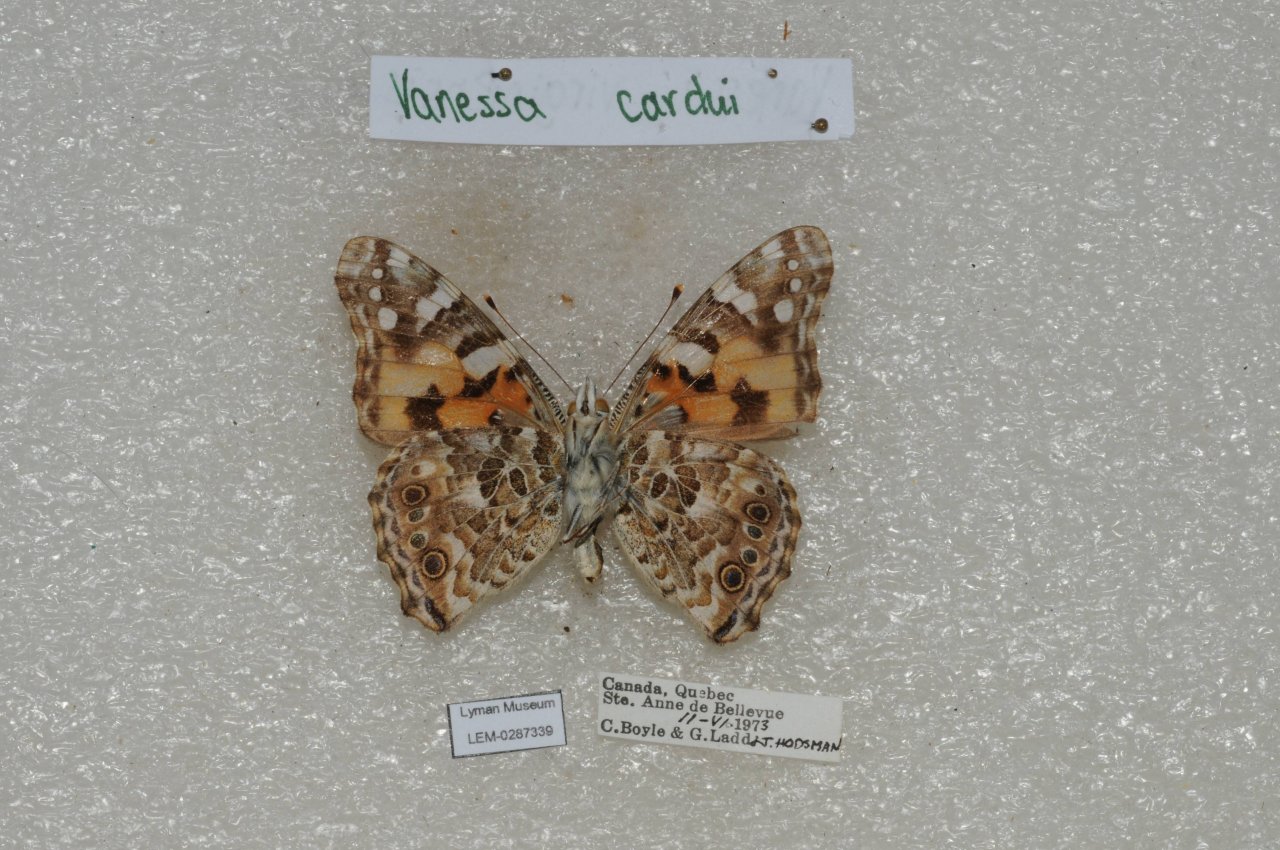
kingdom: Animalia
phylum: Arthropoda
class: Insecta
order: Lepidoptera
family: Nymphalidae
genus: Vanessa
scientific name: Vanessa cardui
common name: Painted Lady
